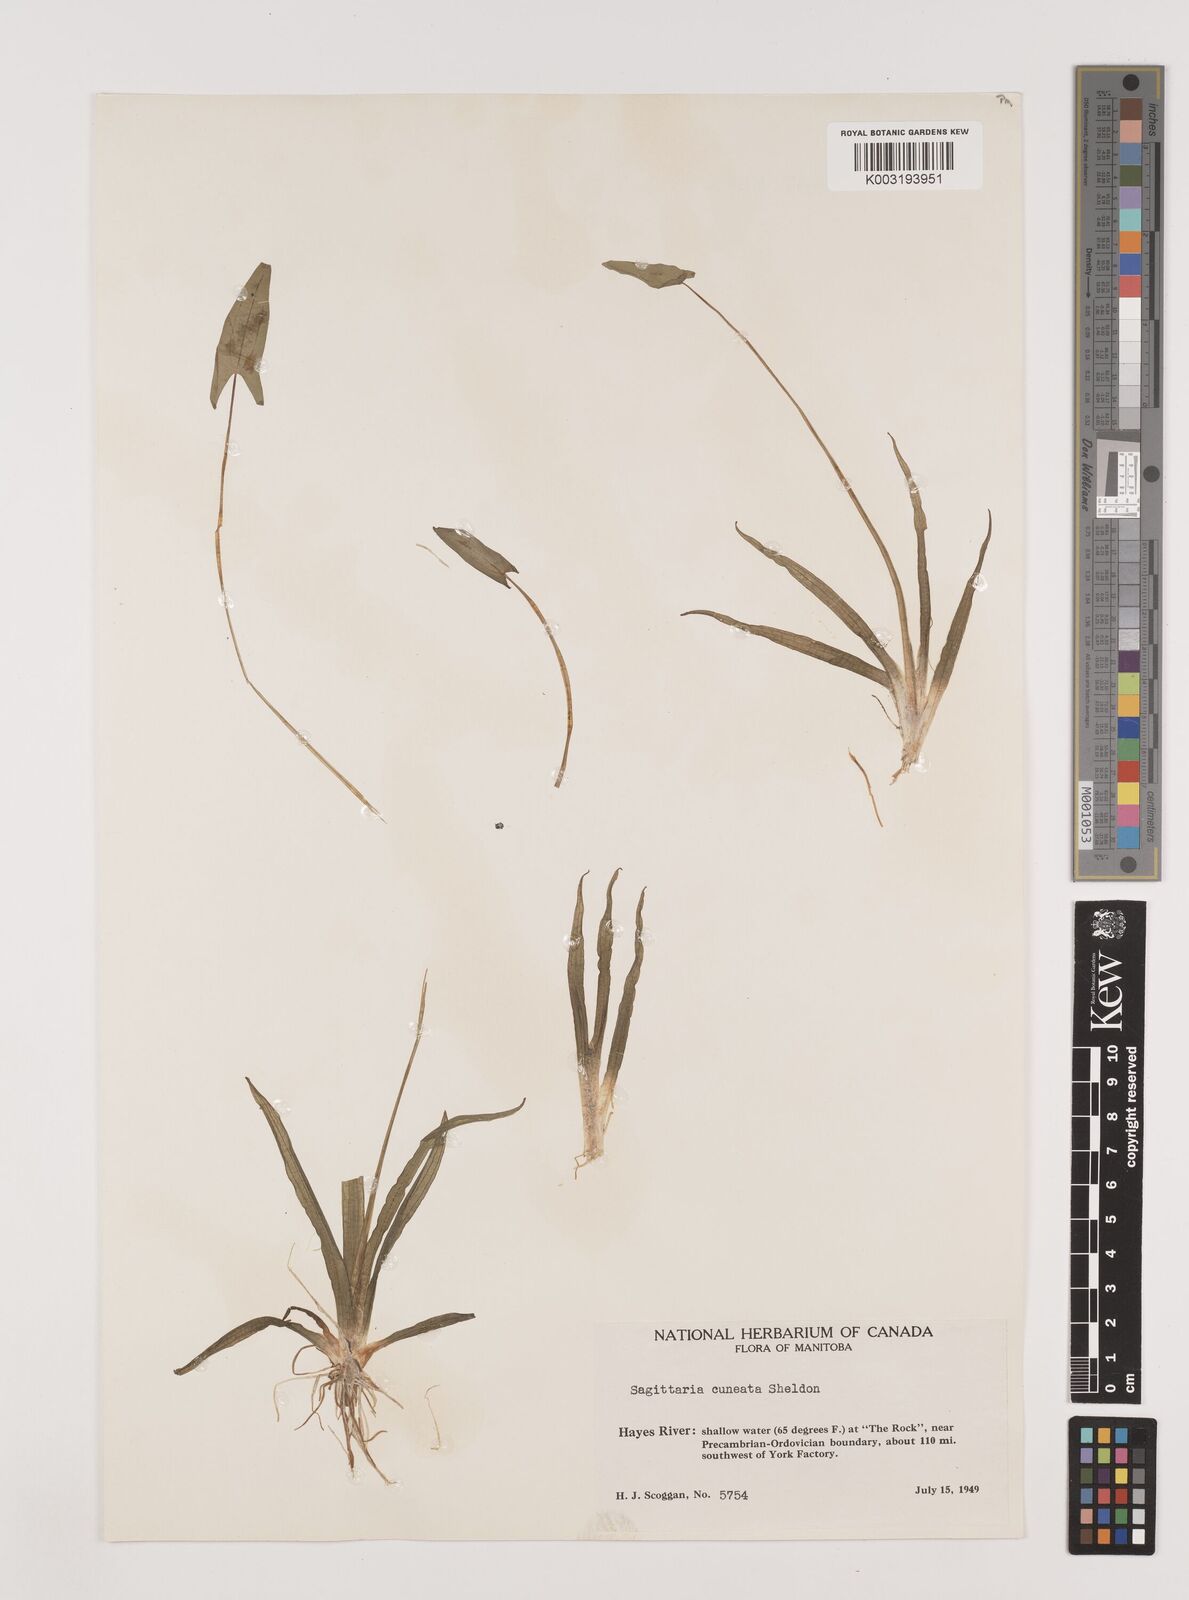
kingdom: Plantae
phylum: Tracheophyta
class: Liliopsida
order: Alismatales
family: Alismataceae
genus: Sagittaria
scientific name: Sagittaria cuneata
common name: Northern arrowhead
